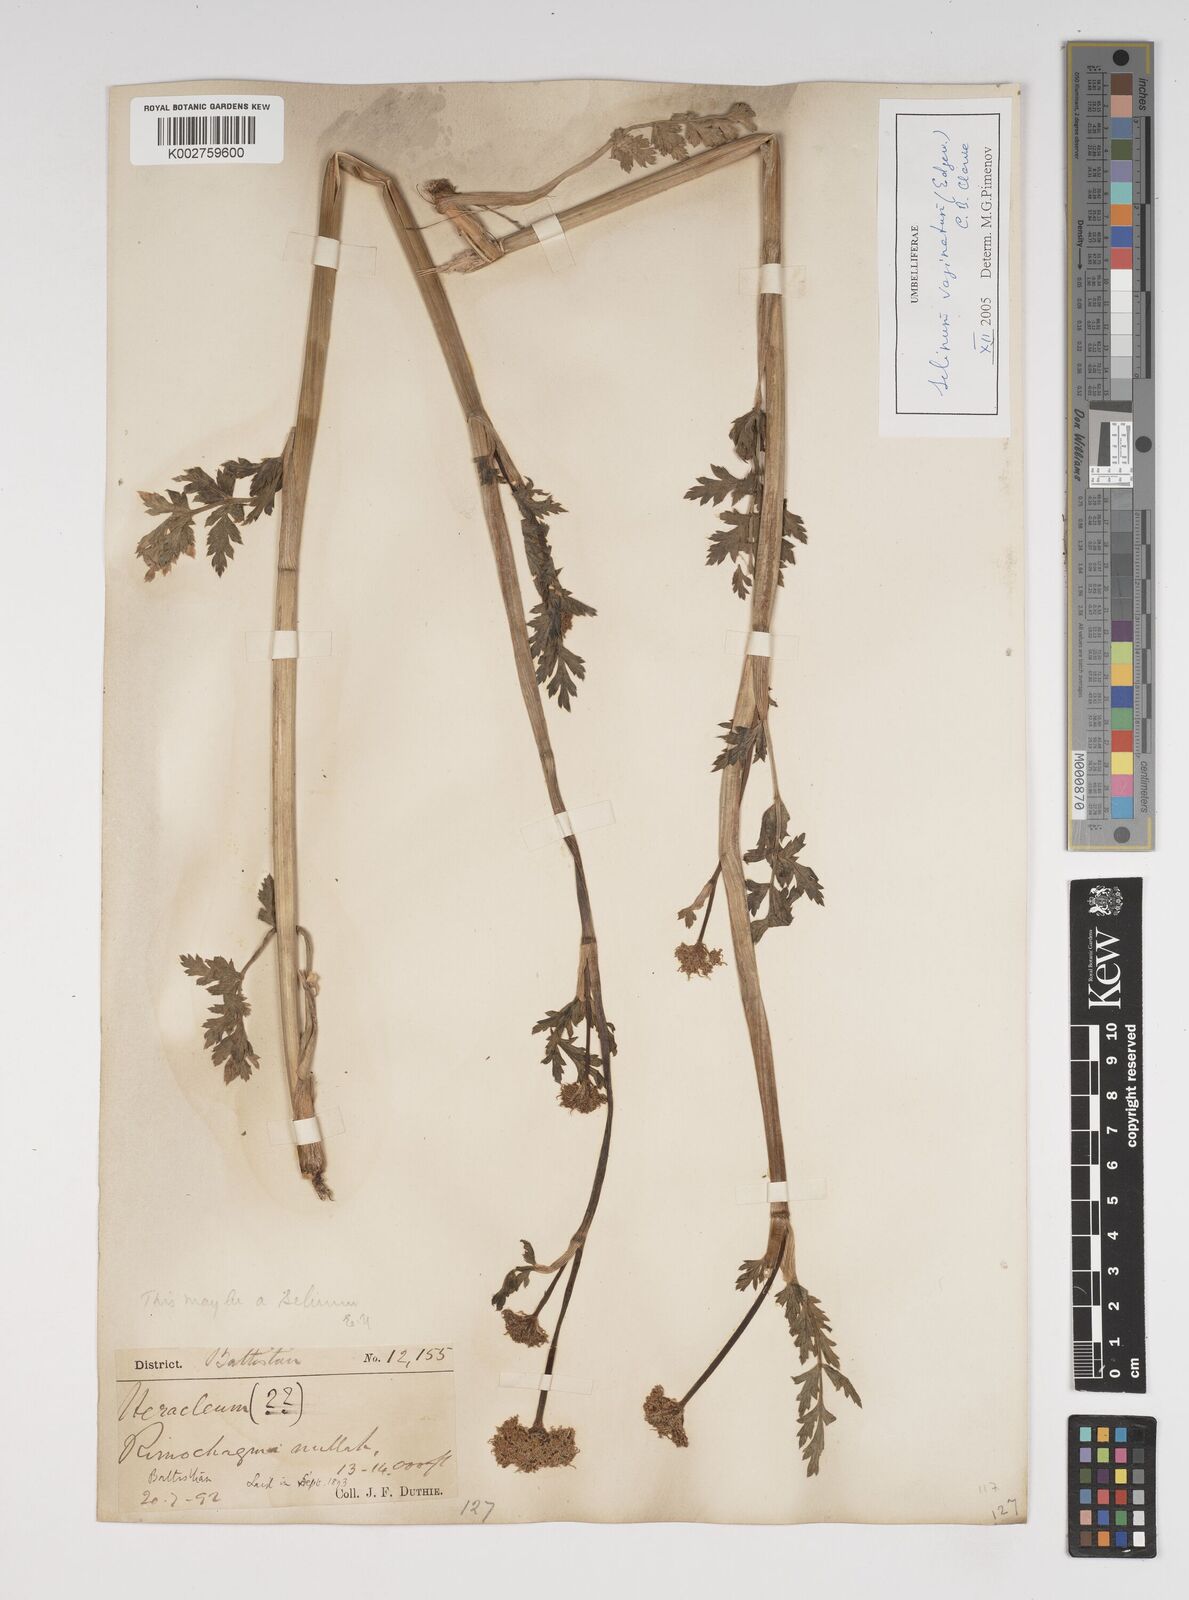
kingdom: Plantae
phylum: Tracheophyta
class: Magnoliopsida
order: Apiales
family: Apiaceae
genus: Selinum
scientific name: Selinum vaginatum
